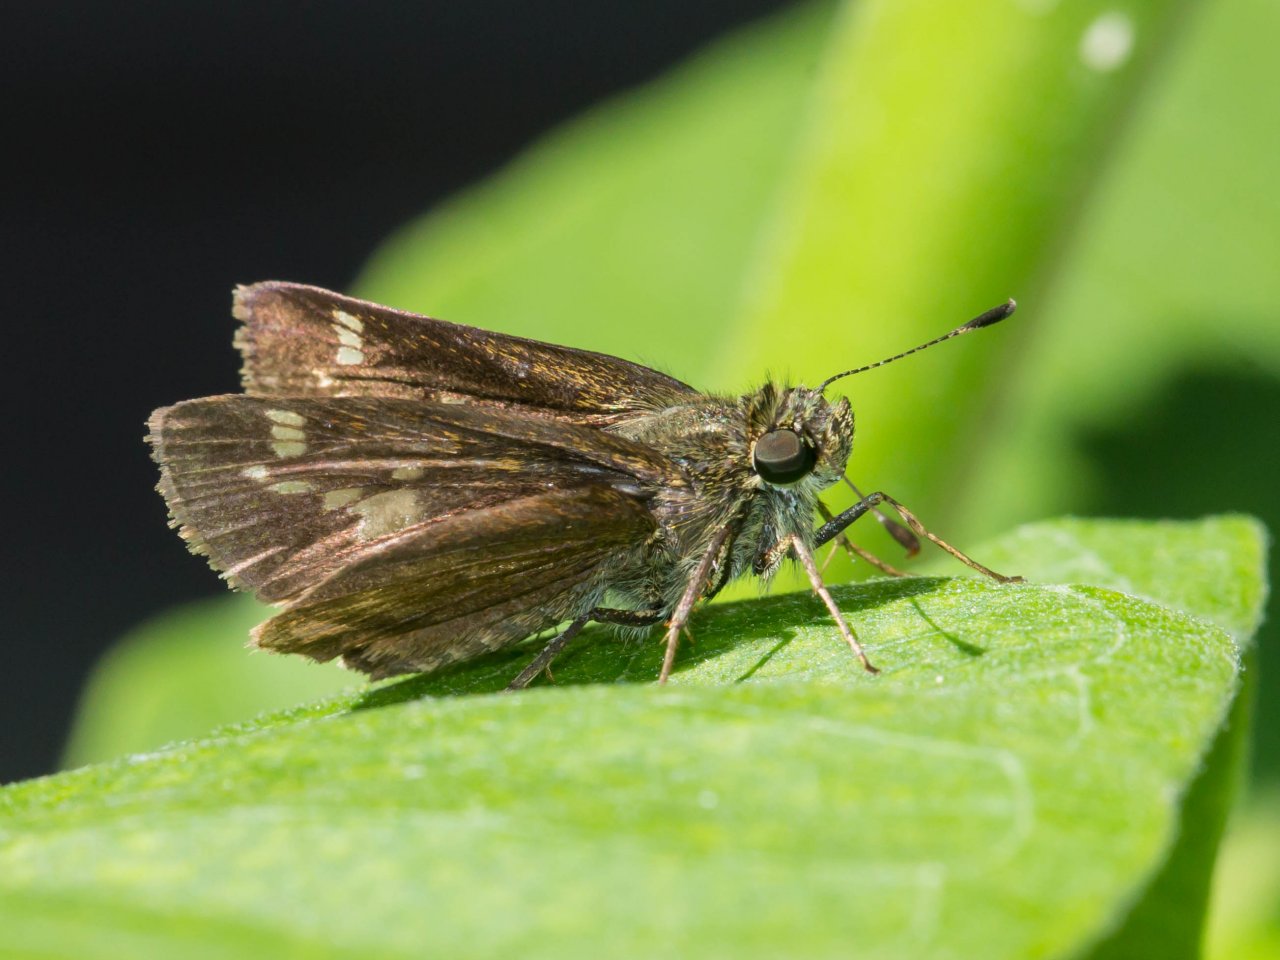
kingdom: Animalia
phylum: Arthropoda
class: Insecta
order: Lepidoptera
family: Hesperiidae
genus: Vernia
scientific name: Vernia verna
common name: Little Glassywing
